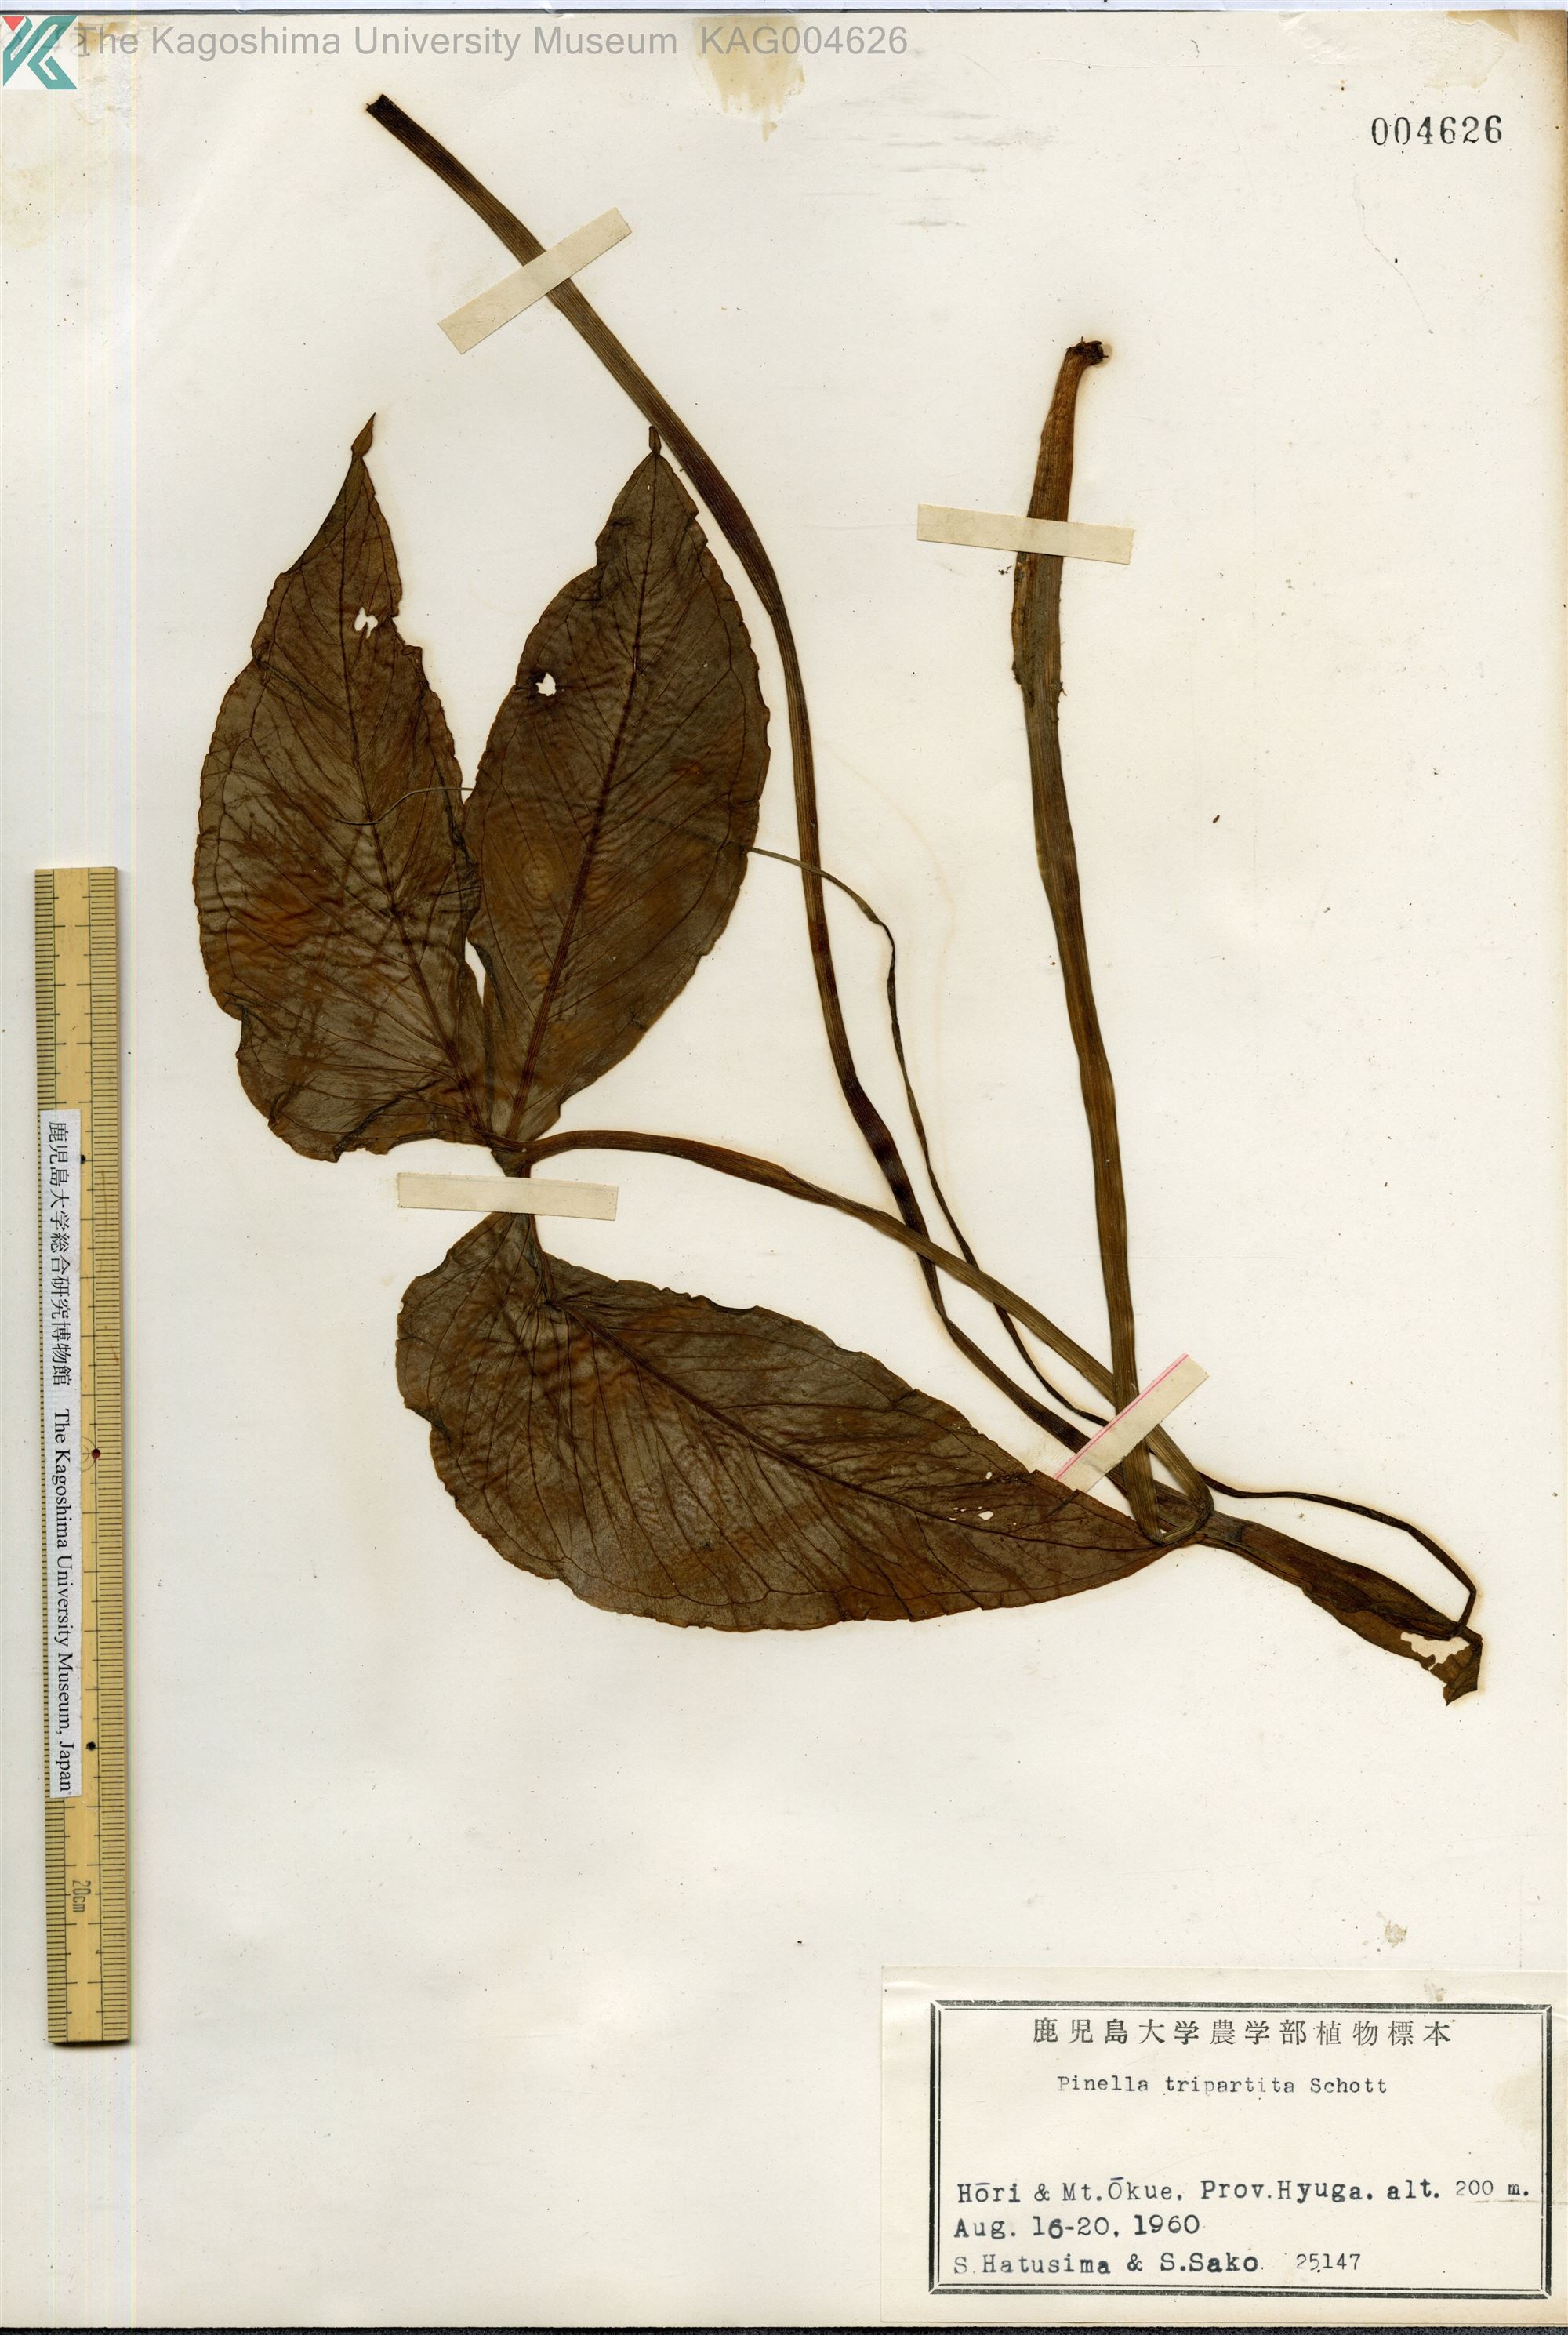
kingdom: Plantae
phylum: Tracheophyta
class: Liliopsida
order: Alismatales
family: Araceae
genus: Pinellia
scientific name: Pinellia tripartita
